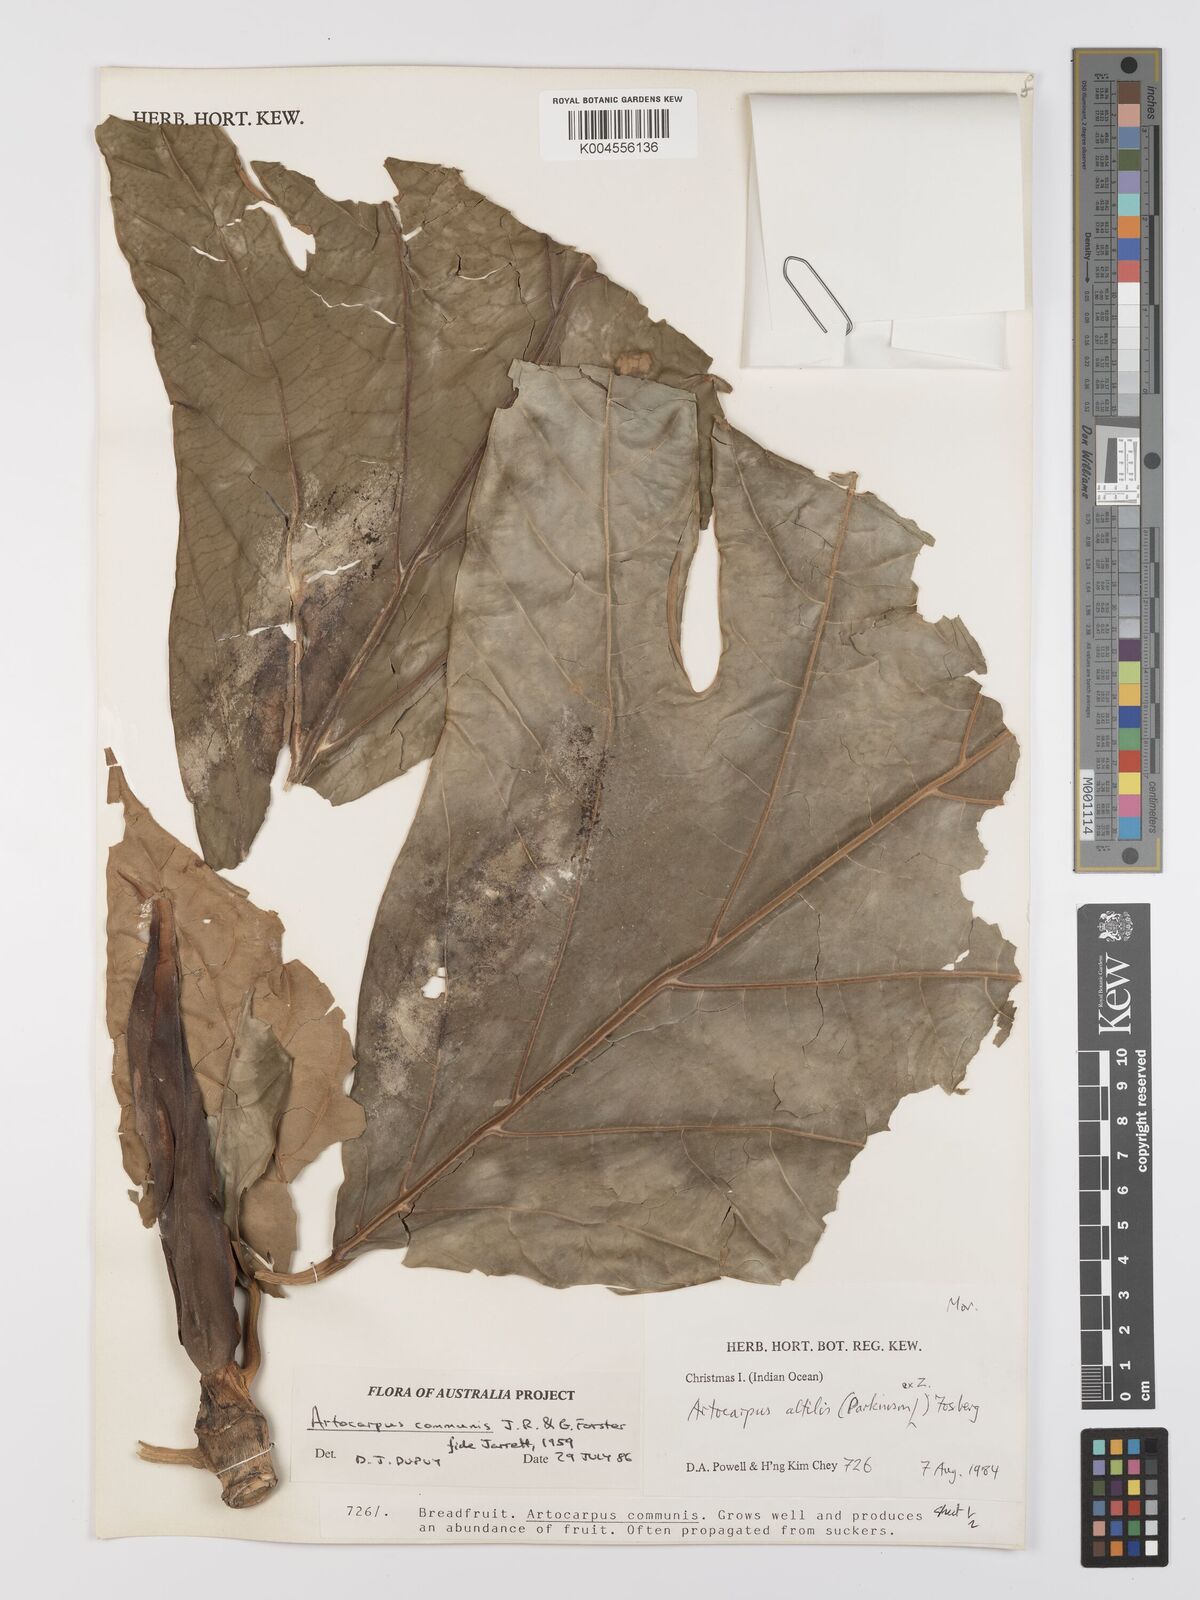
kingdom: Plantae
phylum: Tracheophyta
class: Magnoliopsida
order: Rosales
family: Moraceae
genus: Artocarpus
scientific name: Artocarpus altilis
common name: Breadfruit
